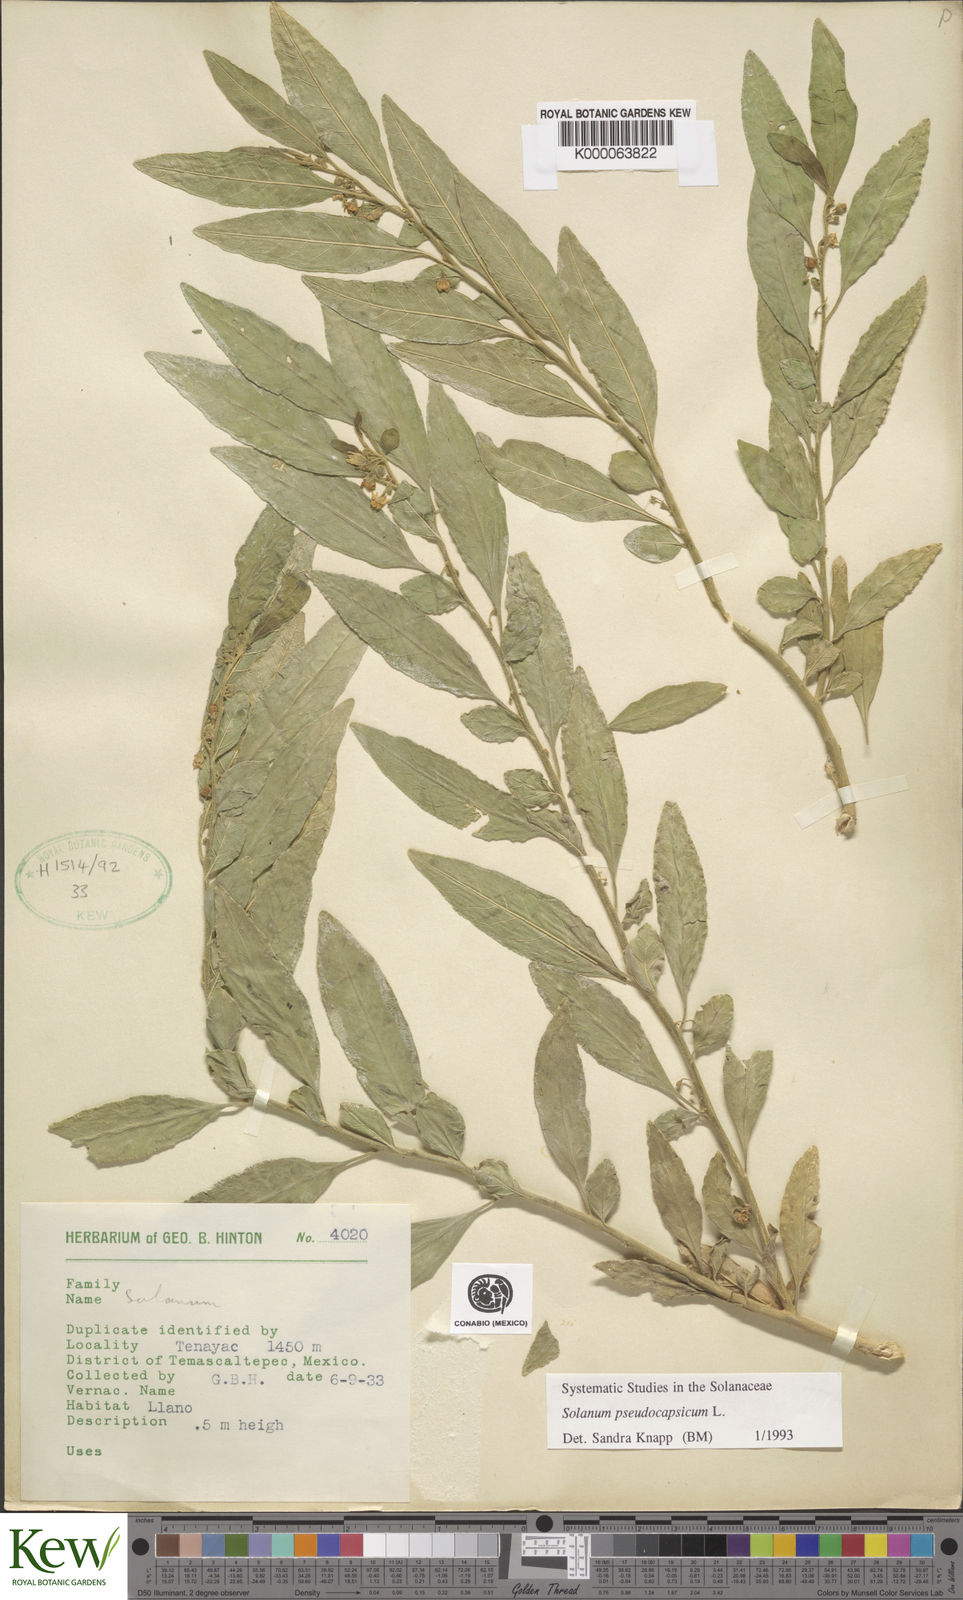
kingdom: Plantae
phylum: Tracheophyta
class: Magnoliopsida
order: Solanales
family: Solanaceae
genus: Solanum
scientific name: Solanum pseudocapsicum
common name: Jerusalem cherry
